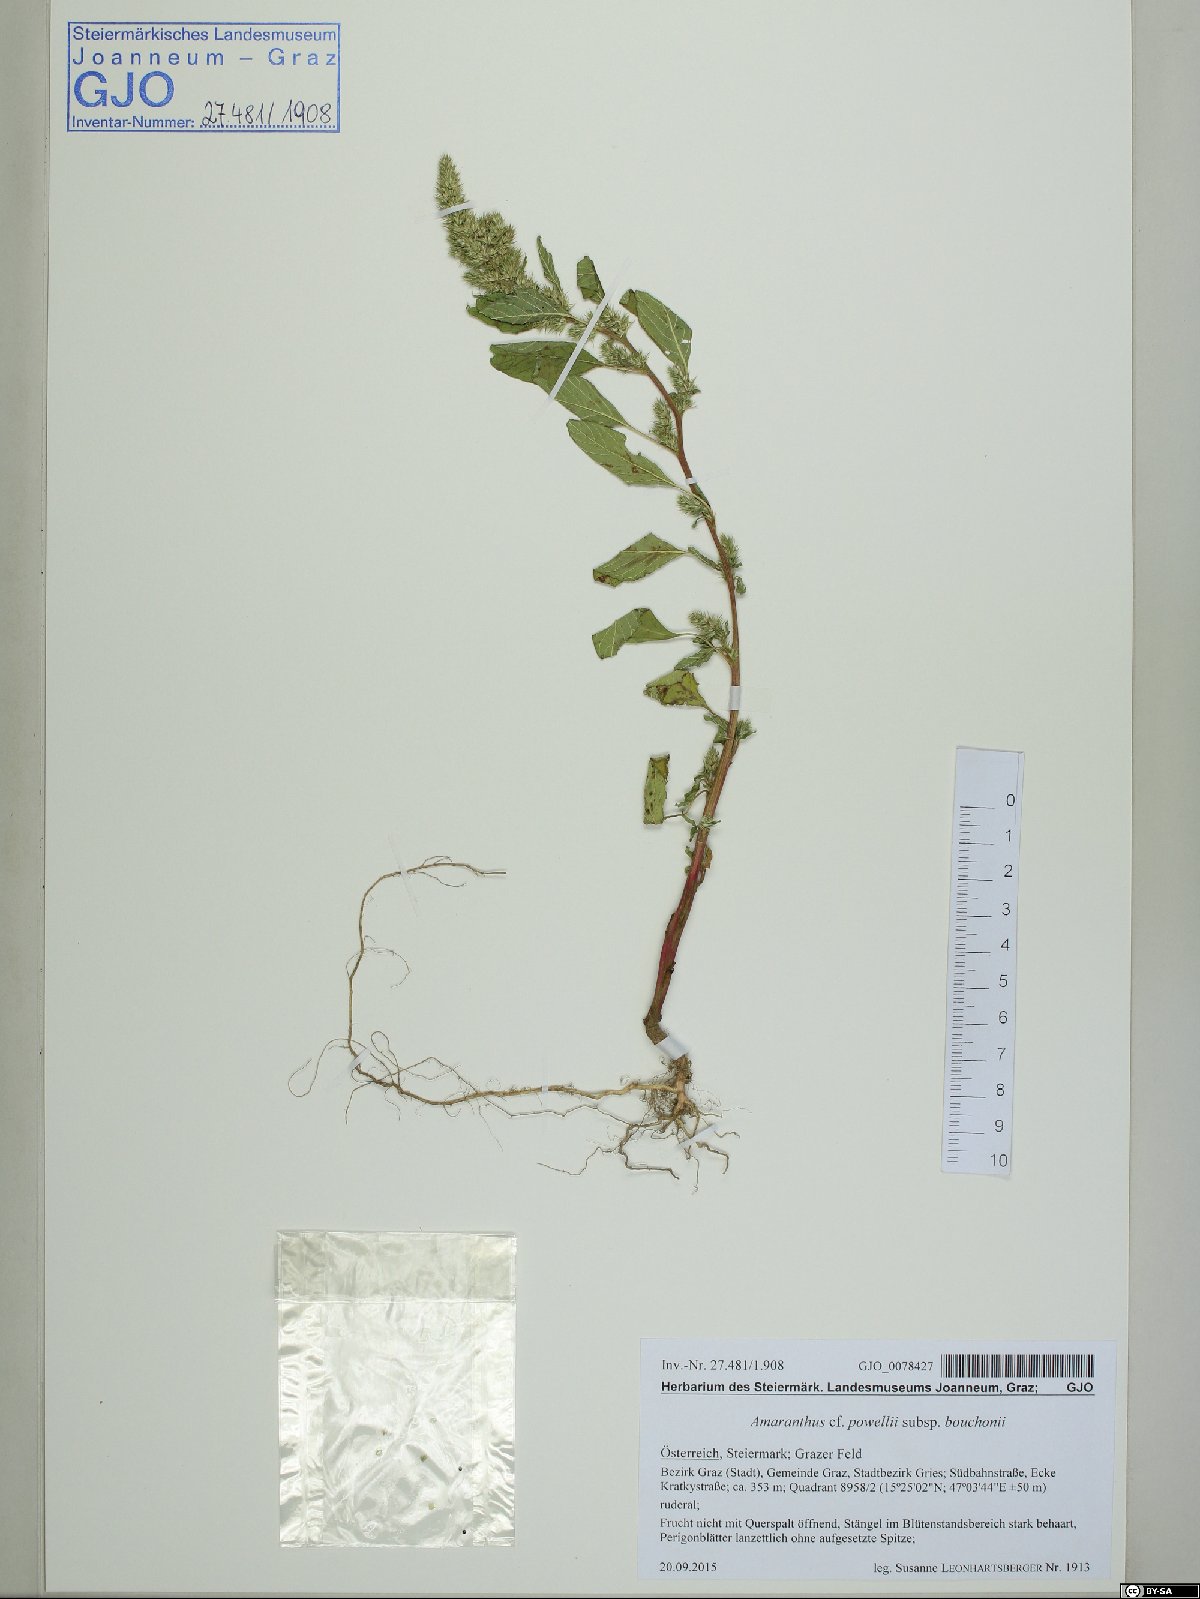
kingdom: Plantae
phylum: Tracheophyta
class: Magnoliopsida
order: Caryophyllales
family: Amaranthaceae
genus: Amaranthus
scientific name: Amaranthus bouchonii
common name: Indehiscent amaranth
